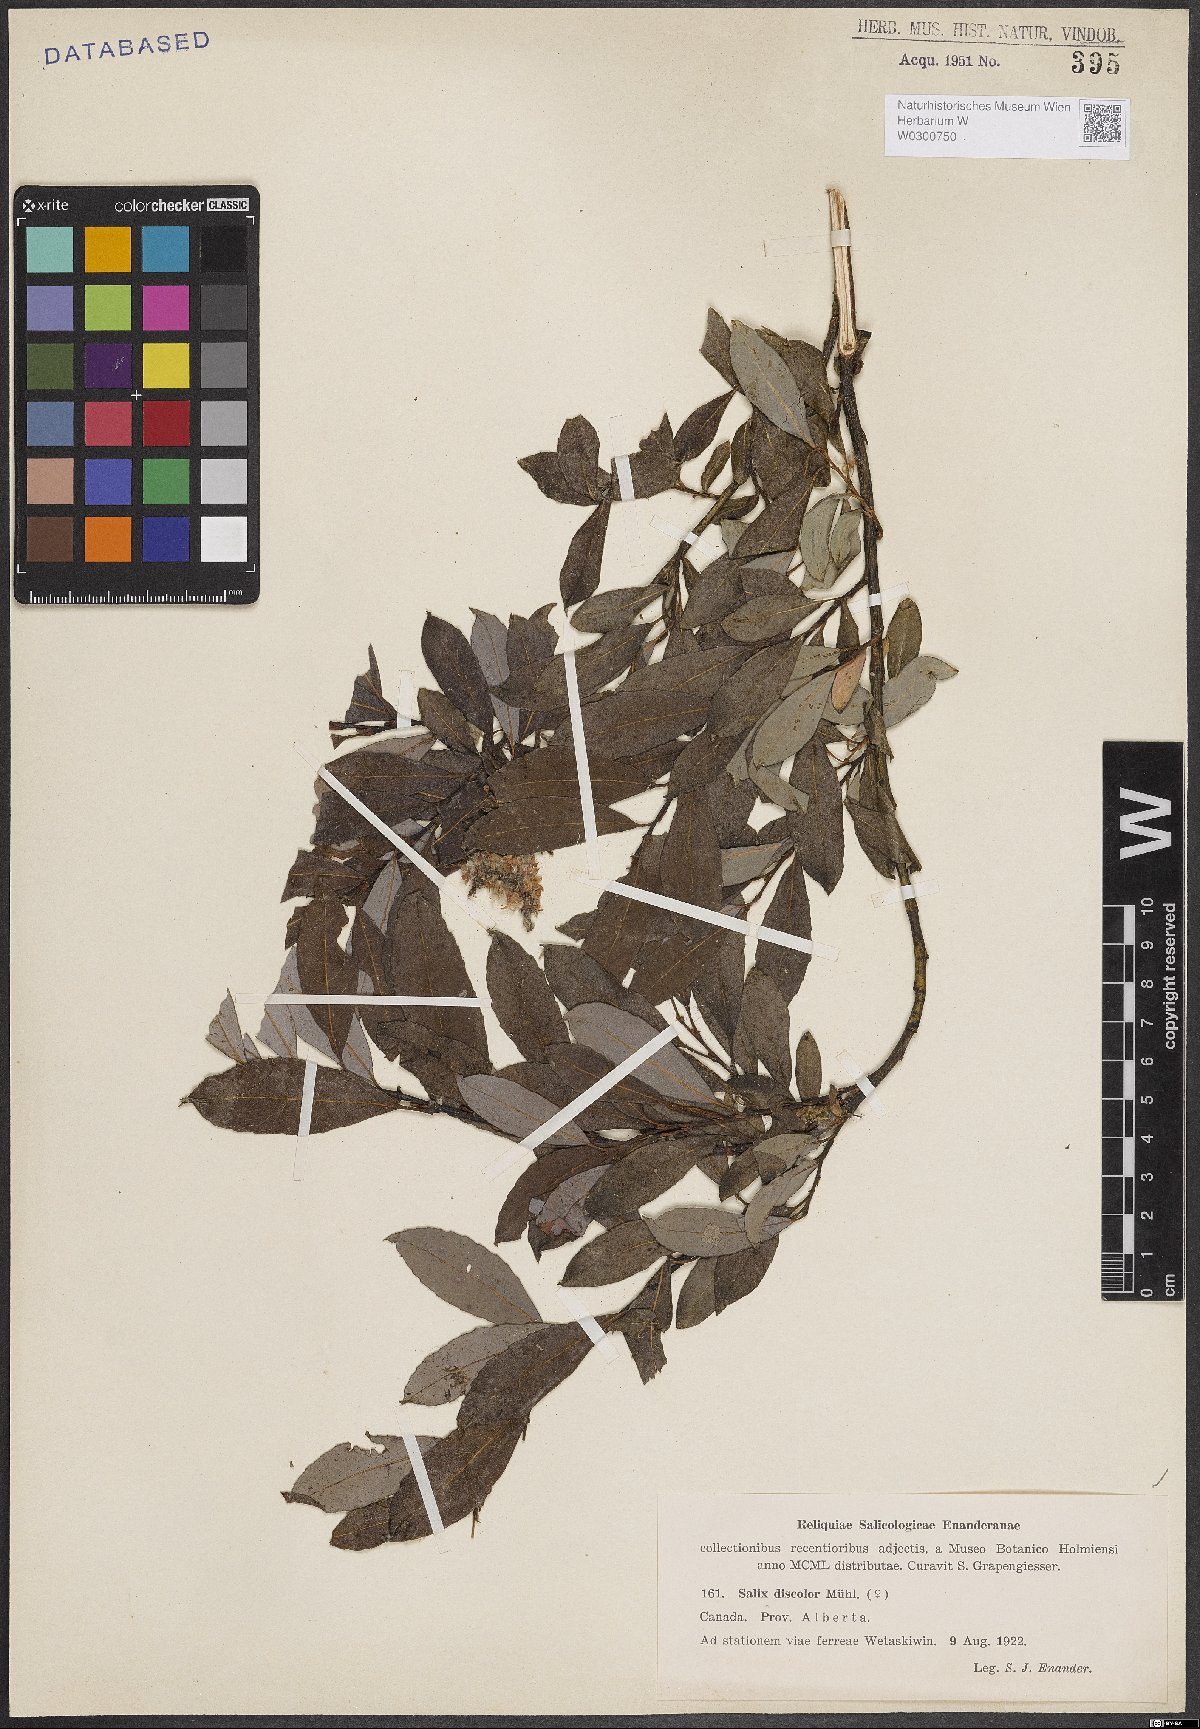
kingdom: Plantae
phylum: Tracheophyta
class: Magnoliopsida
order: Malpighiales
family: Salicaceae
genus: Salix
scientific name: Salix discolor
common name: Glaucous willow
